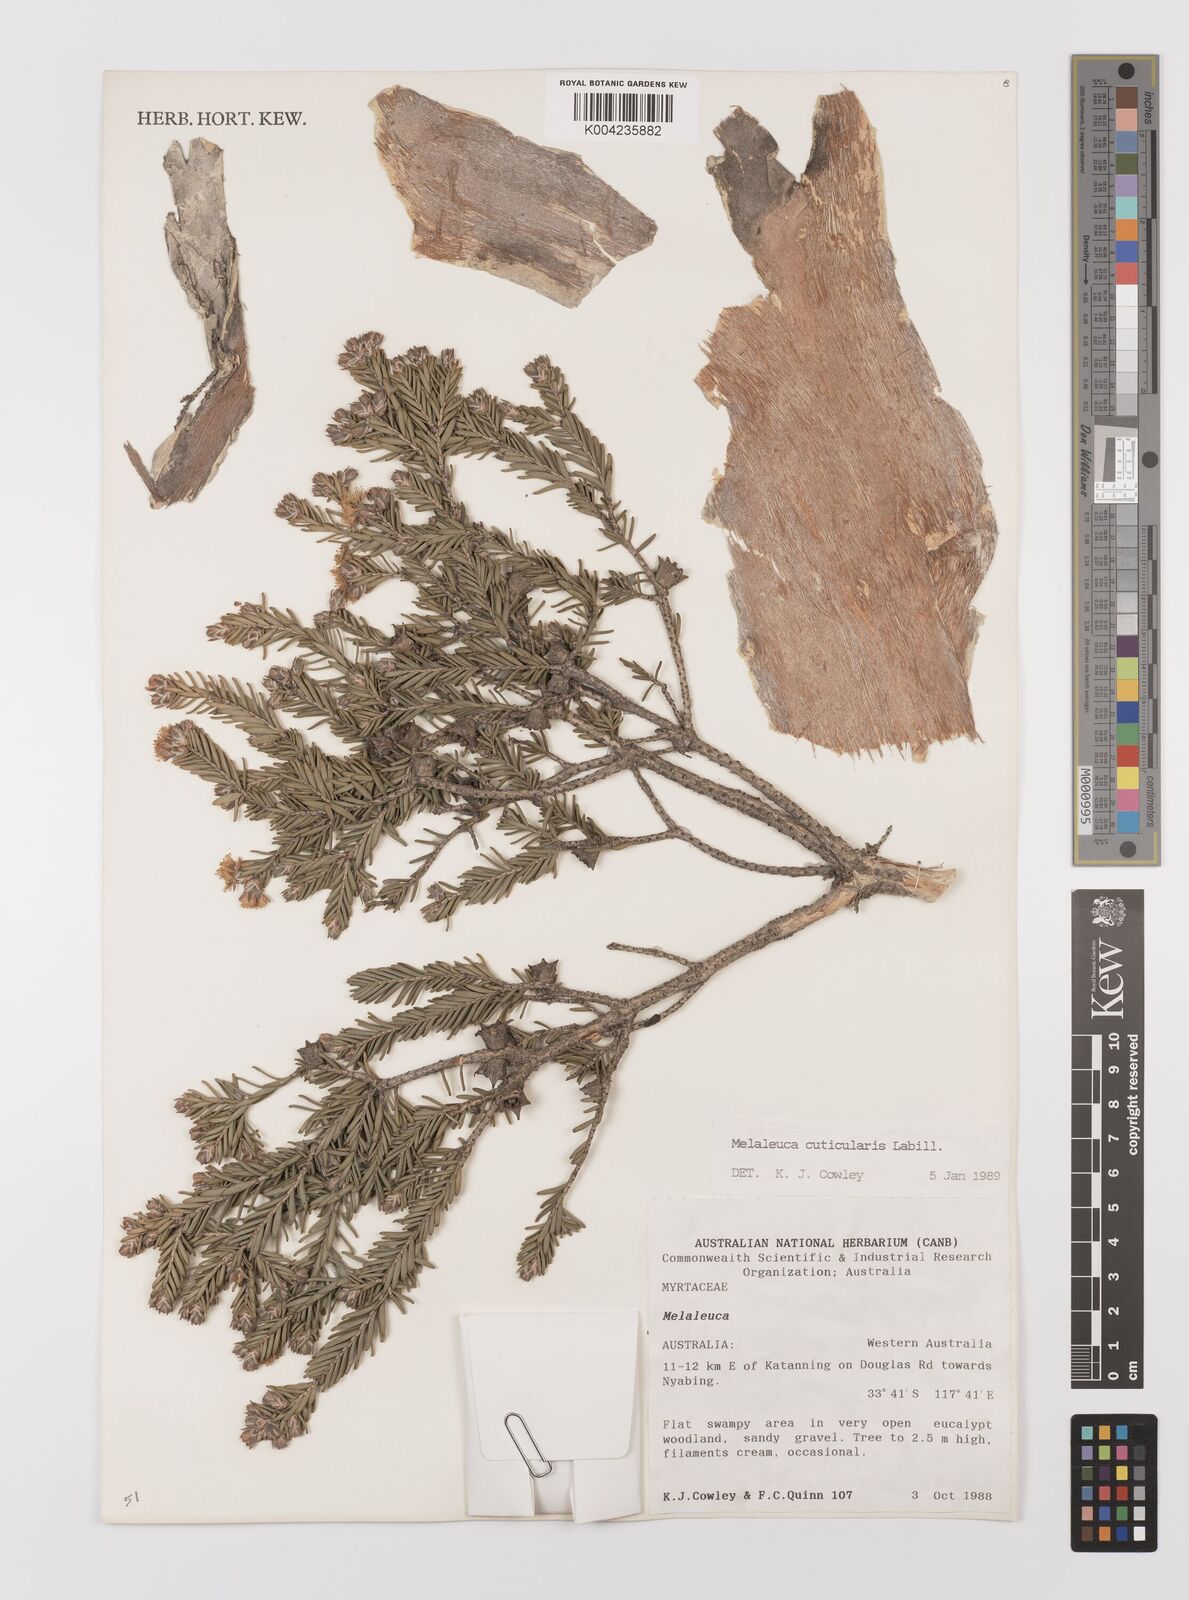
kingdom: Plantae
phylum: Tracheophyta
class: Magnoliopsida
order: Myrtales
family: Myrtaceae
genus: Melaleuca
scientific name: Melaleuca cuticularis
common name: Saltwater paperbark
